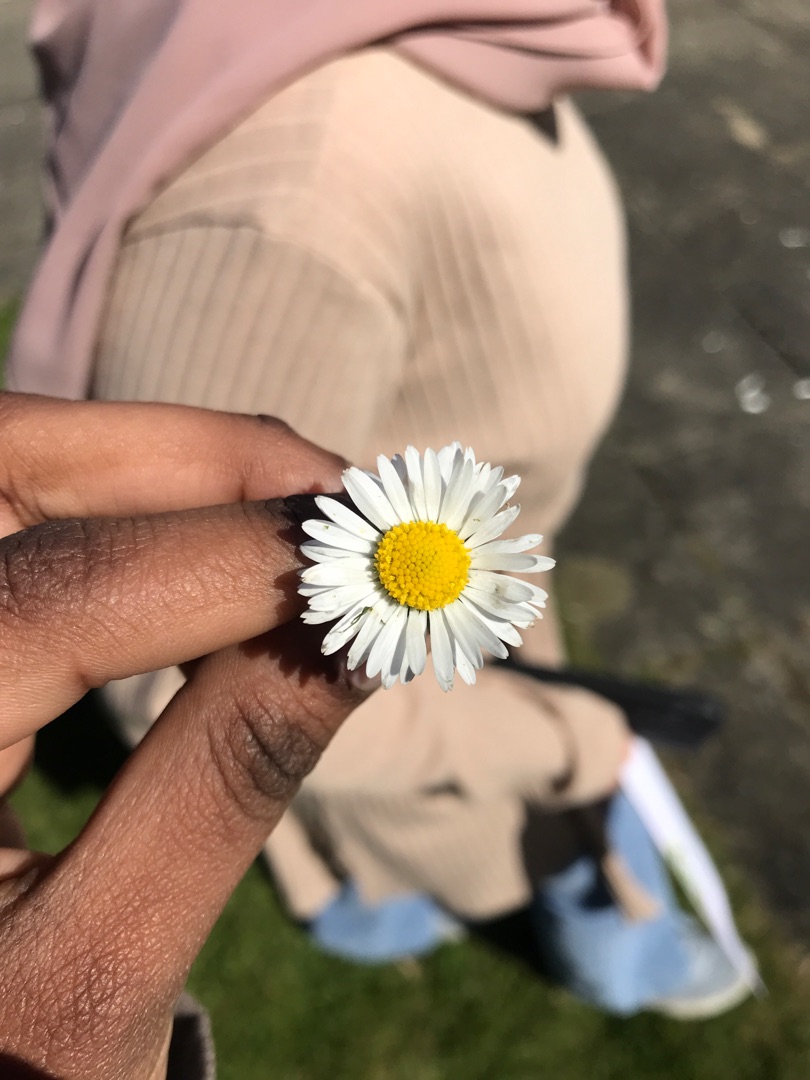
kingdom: Plantae
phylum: Tracheophyta
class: Magnoliopsida
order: Asterales
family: Asteraceae
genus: Bellis
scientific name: Bellis perennis
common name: Tusindfryd
